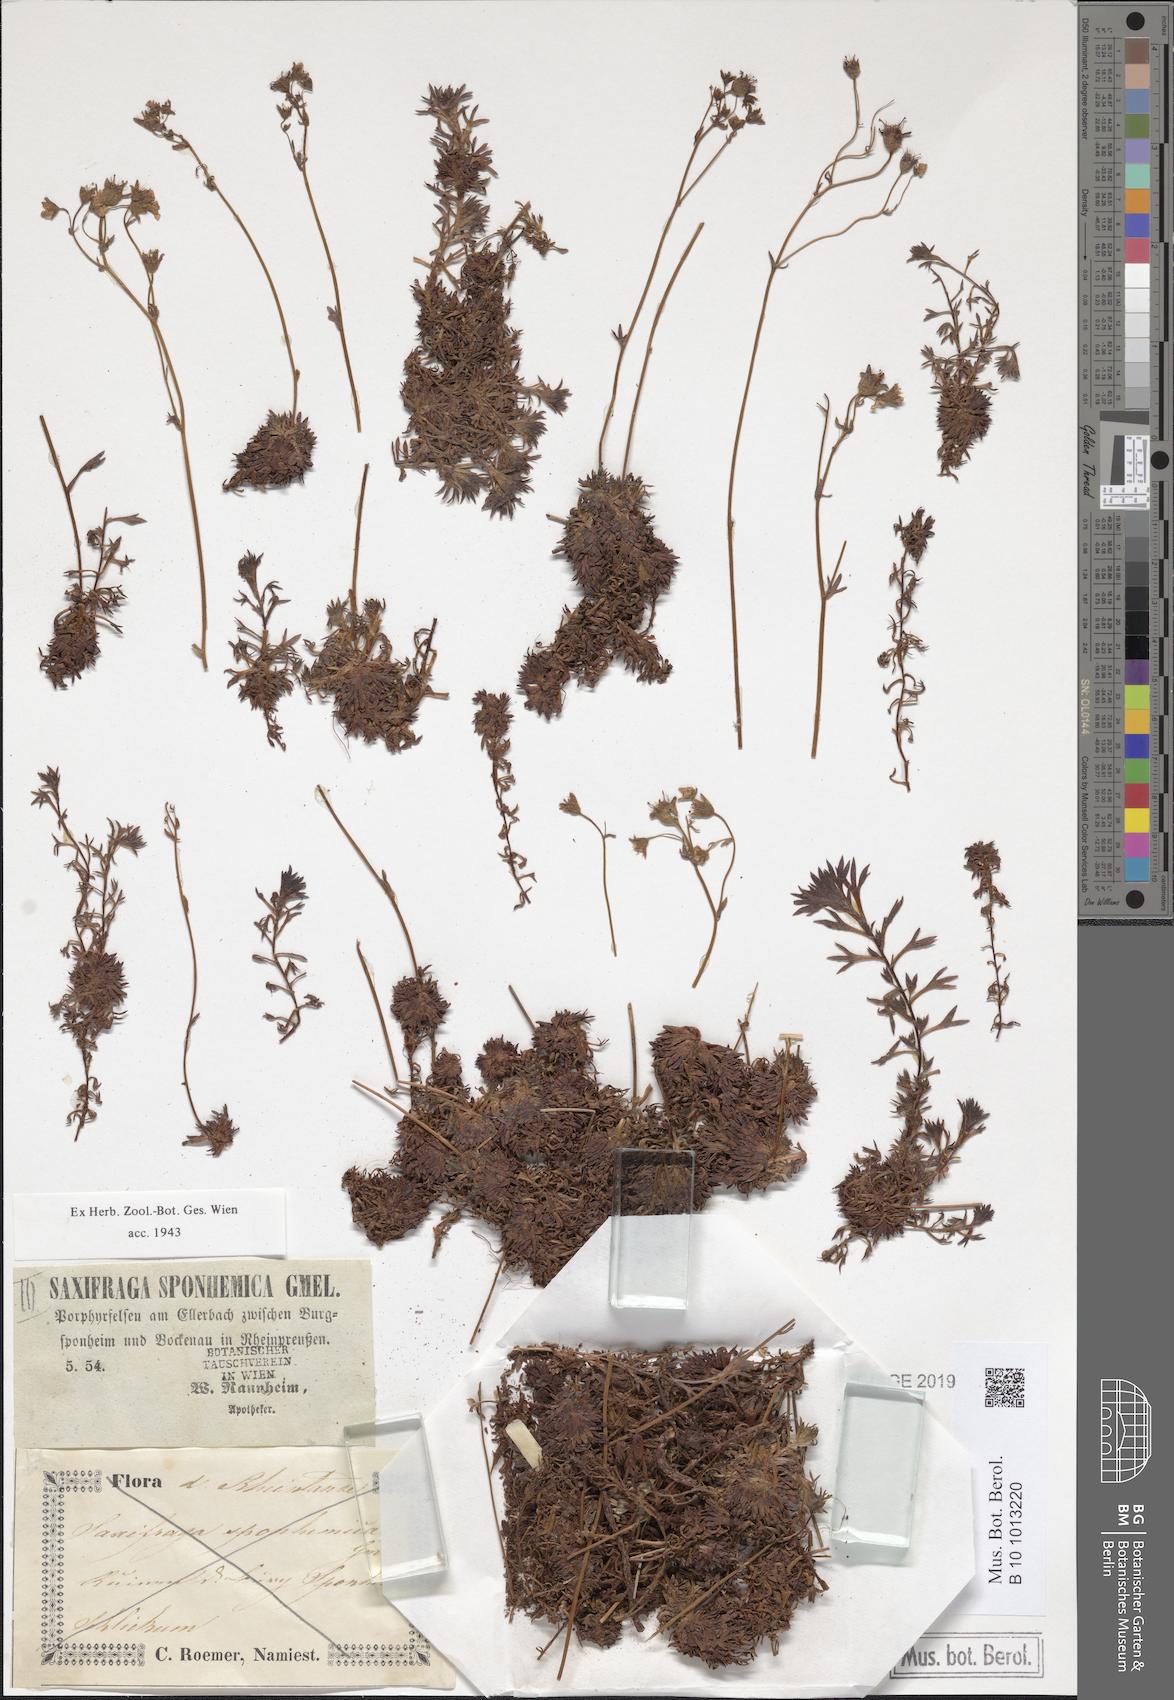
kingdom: Plantae
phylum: Tracheophyta
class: Magnoliopsida
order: Saxifragales
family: Saxifragaceae
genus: Saxifraga
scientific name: Saxifraga rosacea
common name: Irish saxifrage
